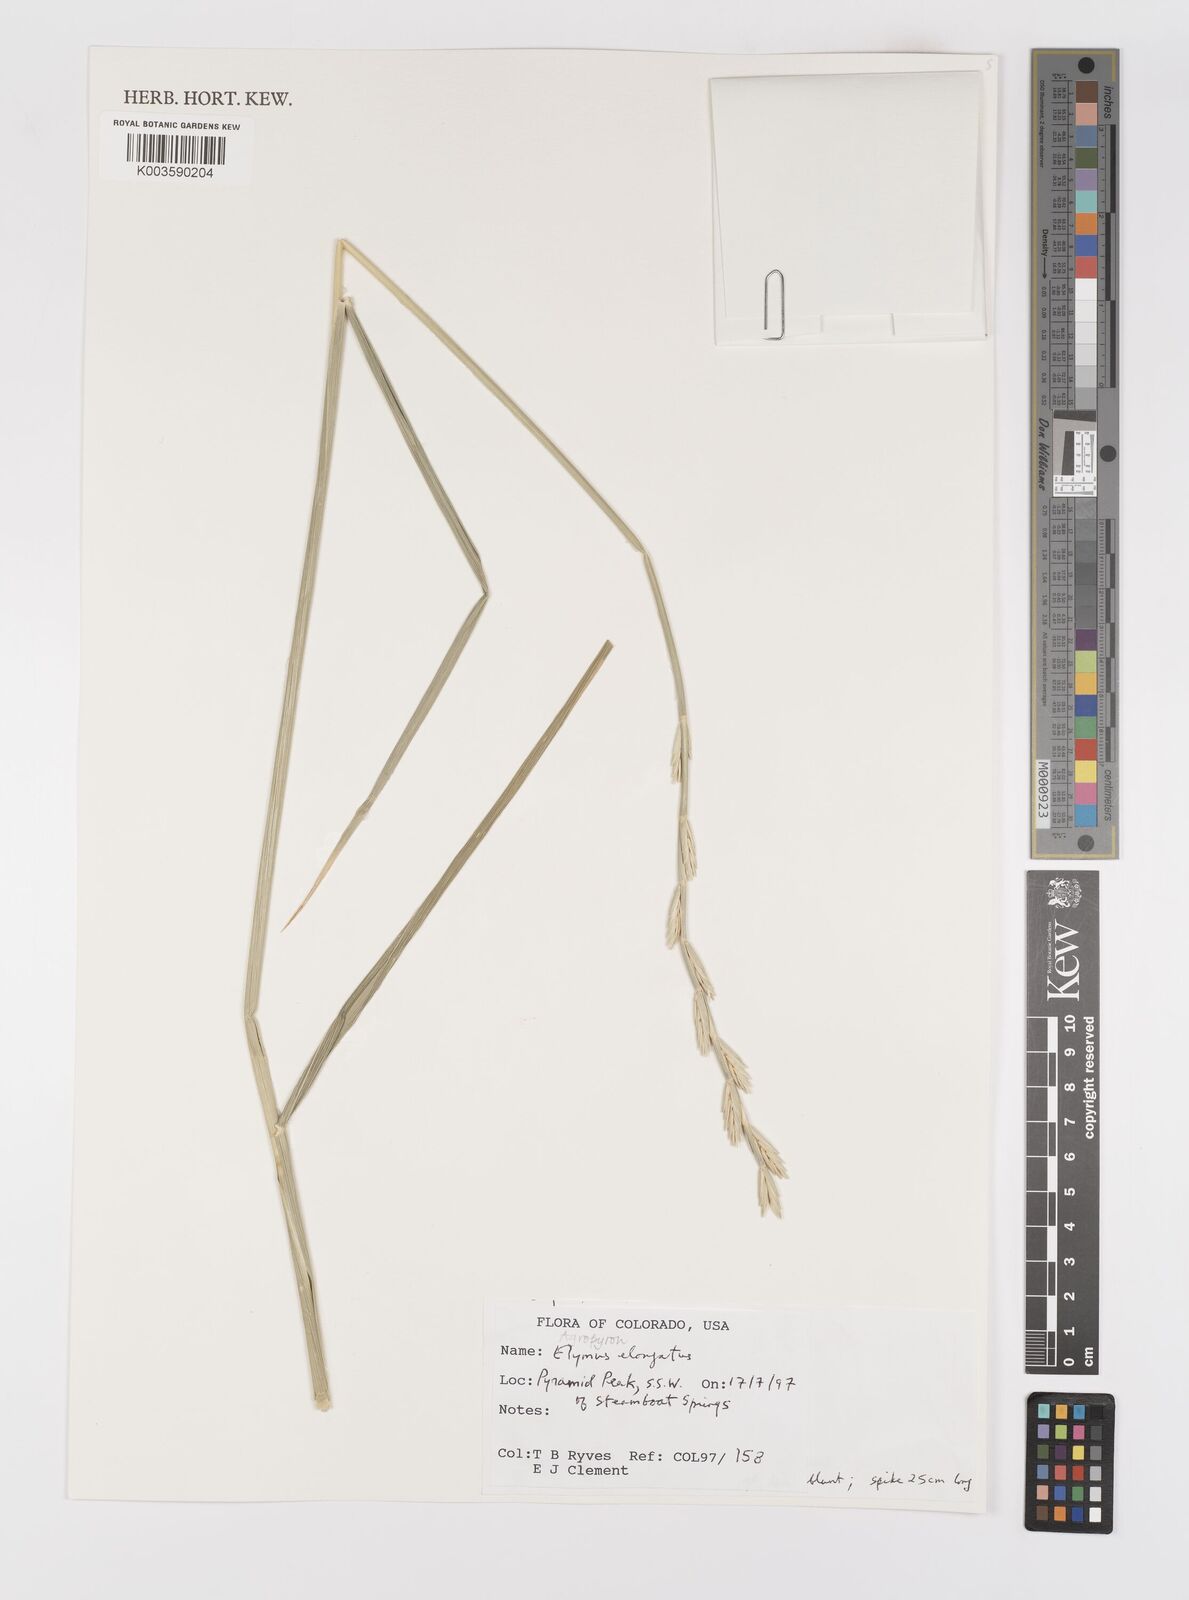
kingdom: Plantae
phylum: Tracheophyta
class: Liliopsida
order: Poales
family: Poaceae
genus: Thinopyrum
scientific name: Thinopyrum elongatum
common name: Tall wheatgrass
